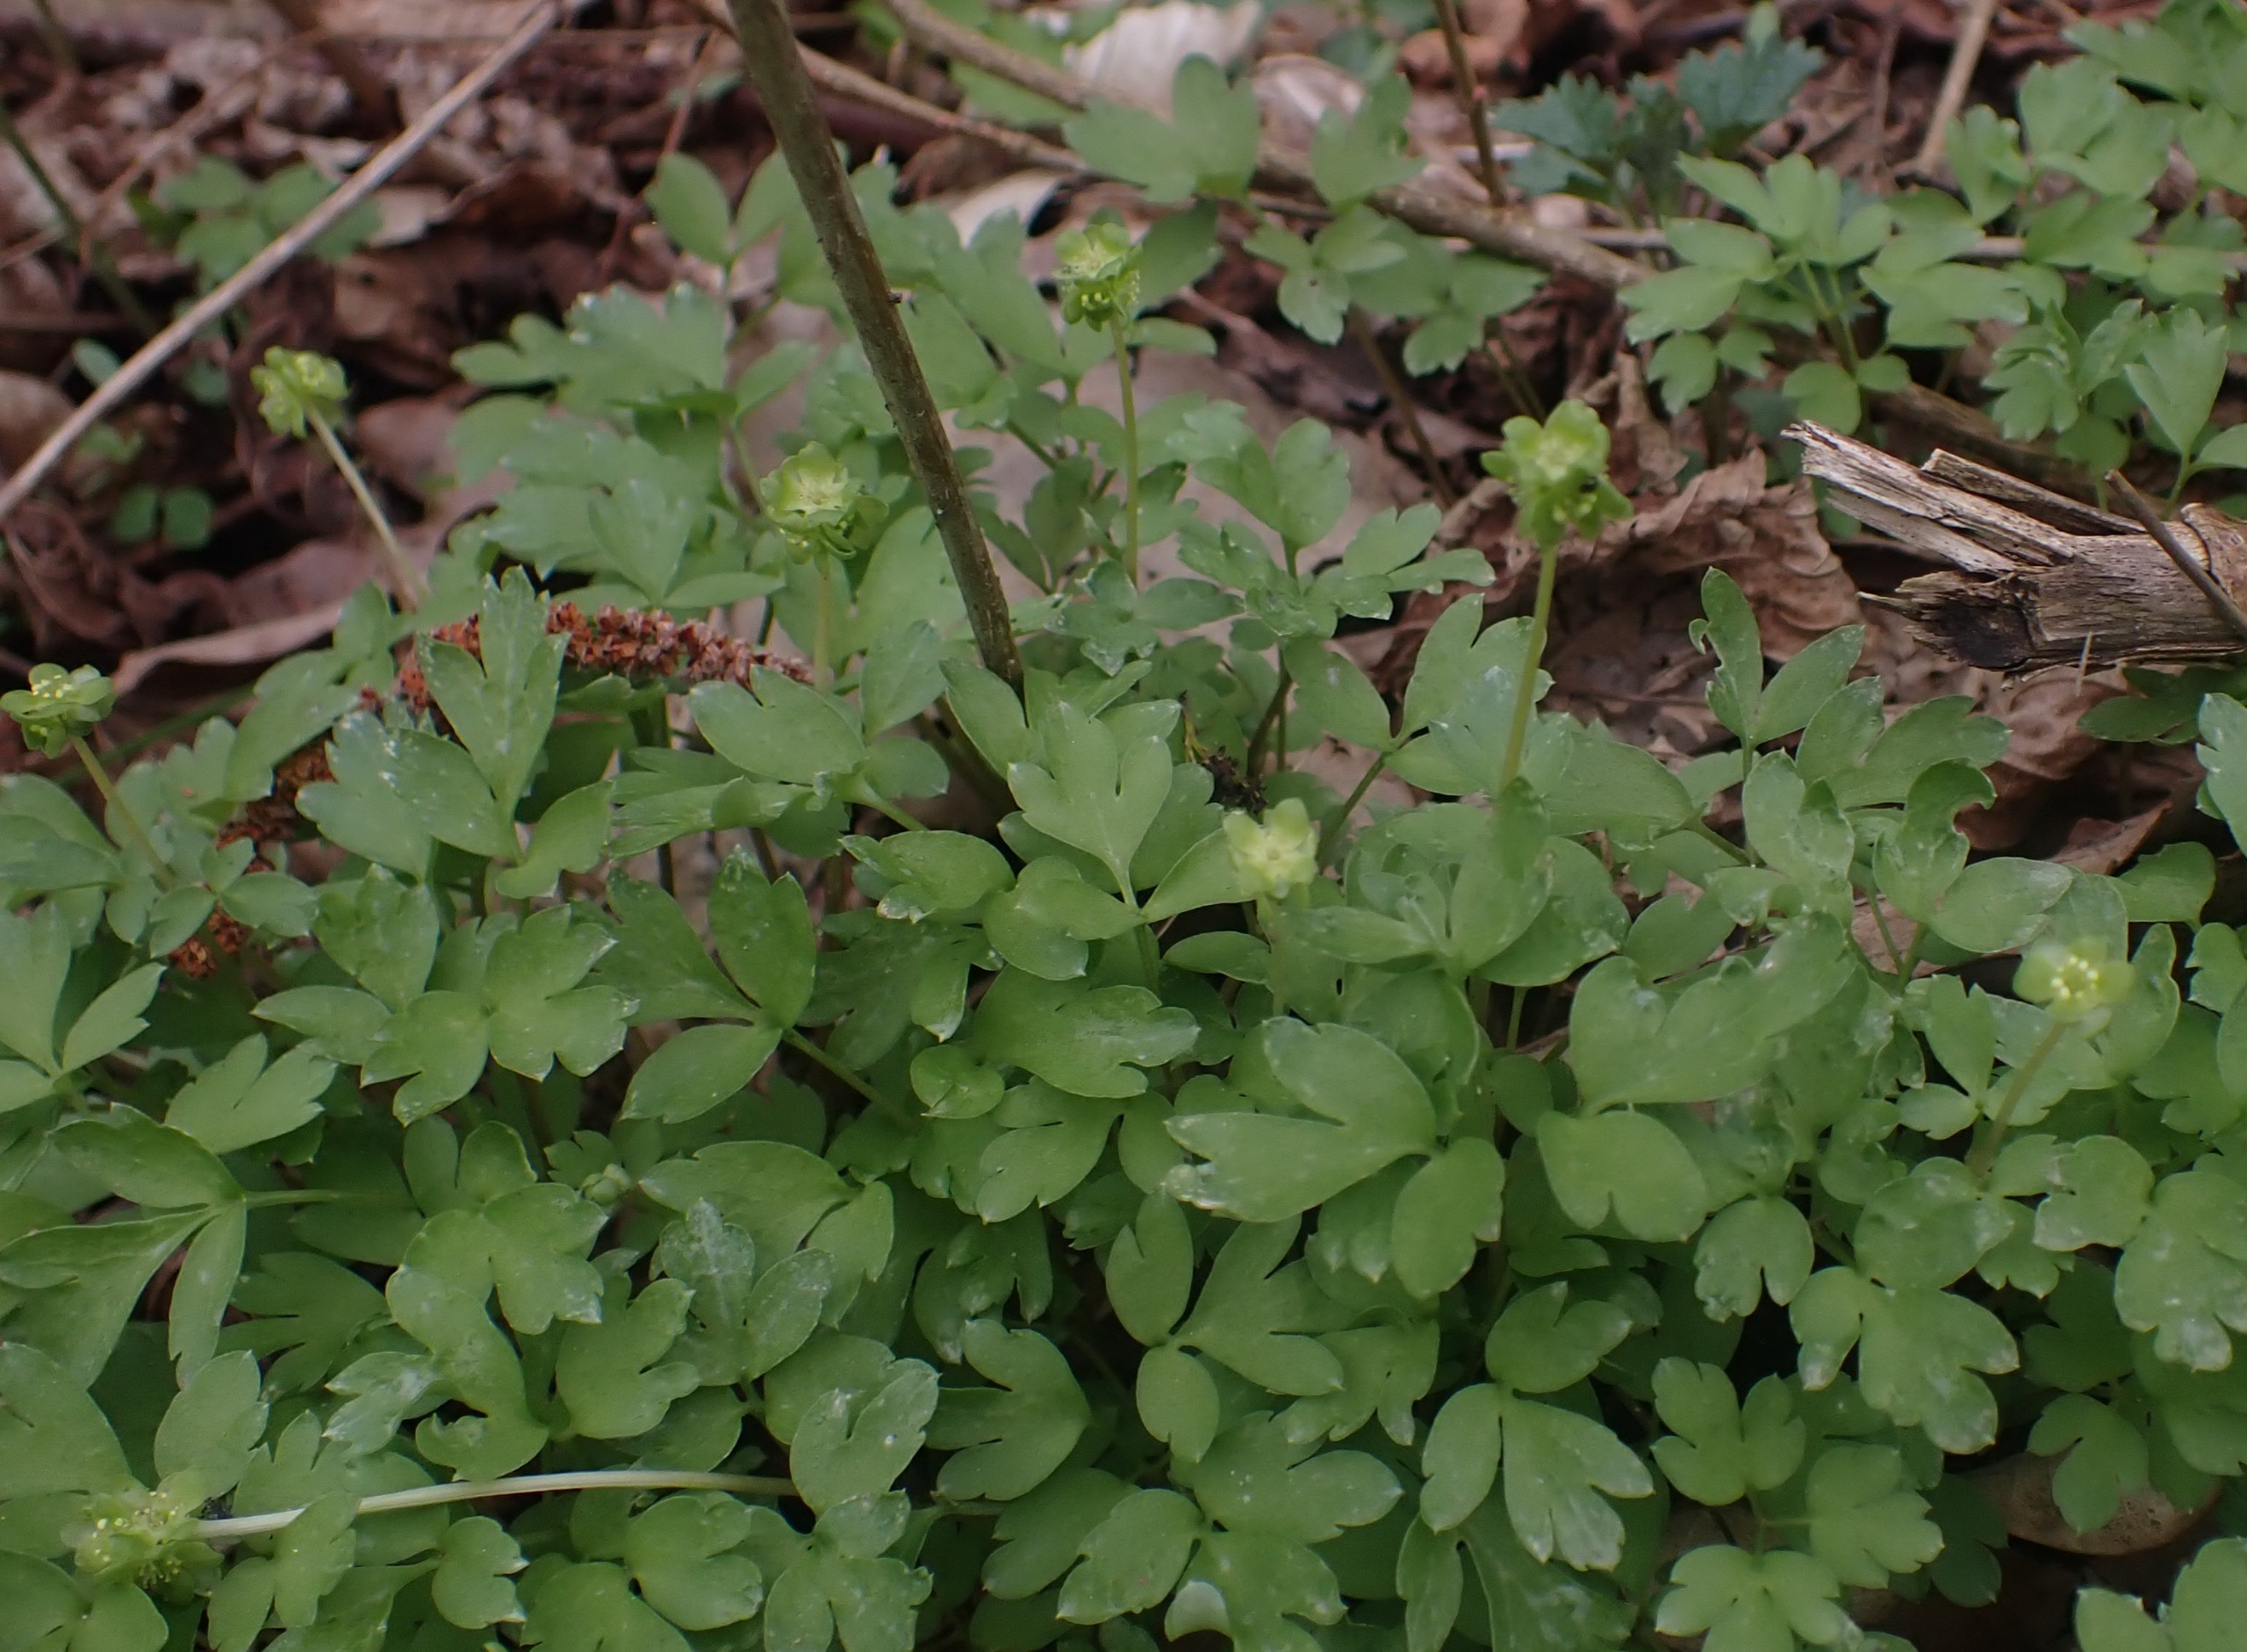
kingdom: Plantae
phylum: Tracheophyta
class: Magnoliopsida
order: Dipsacales
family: Viburnaceae
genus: Adoxa
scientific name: Adoxa moschatellina
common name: Desmerurt
